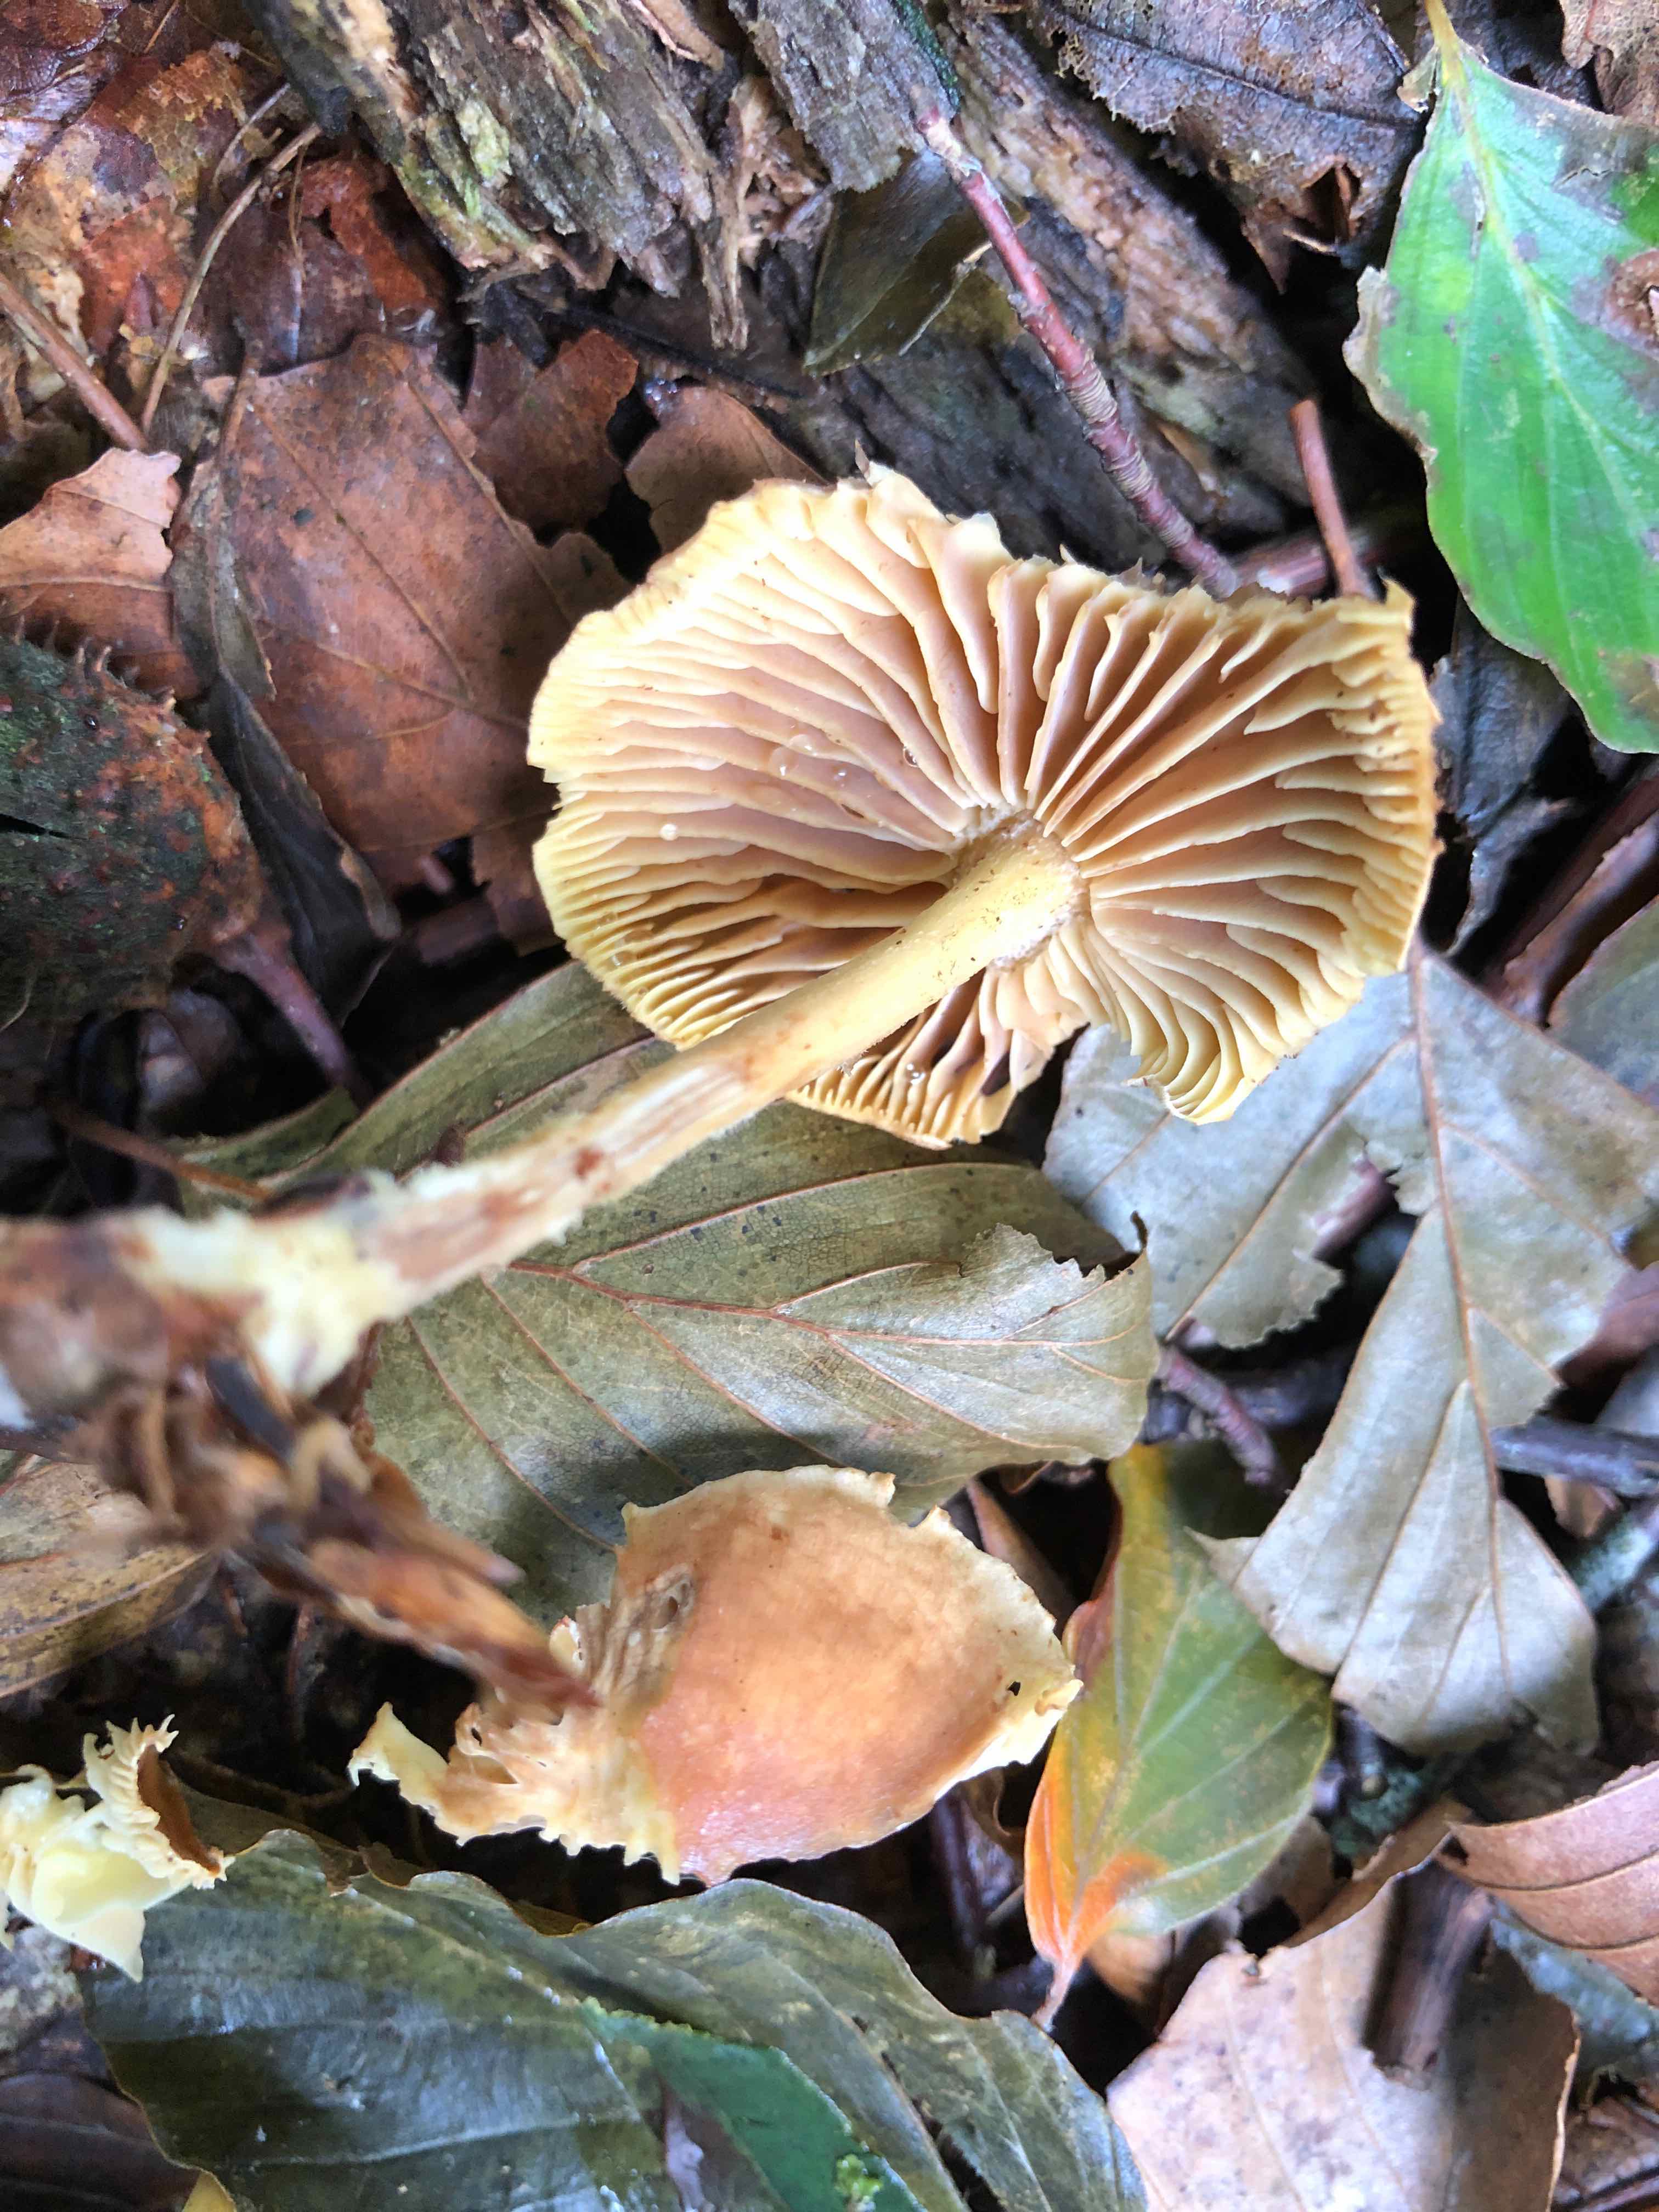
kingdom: Fungi
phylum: Basidiomycota
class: Agaricomycetes
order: Agaricales
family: Omphalotaceae
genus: Collybiopsis
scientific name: Collybiopsis peronata
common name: bestøvlet fladhat
